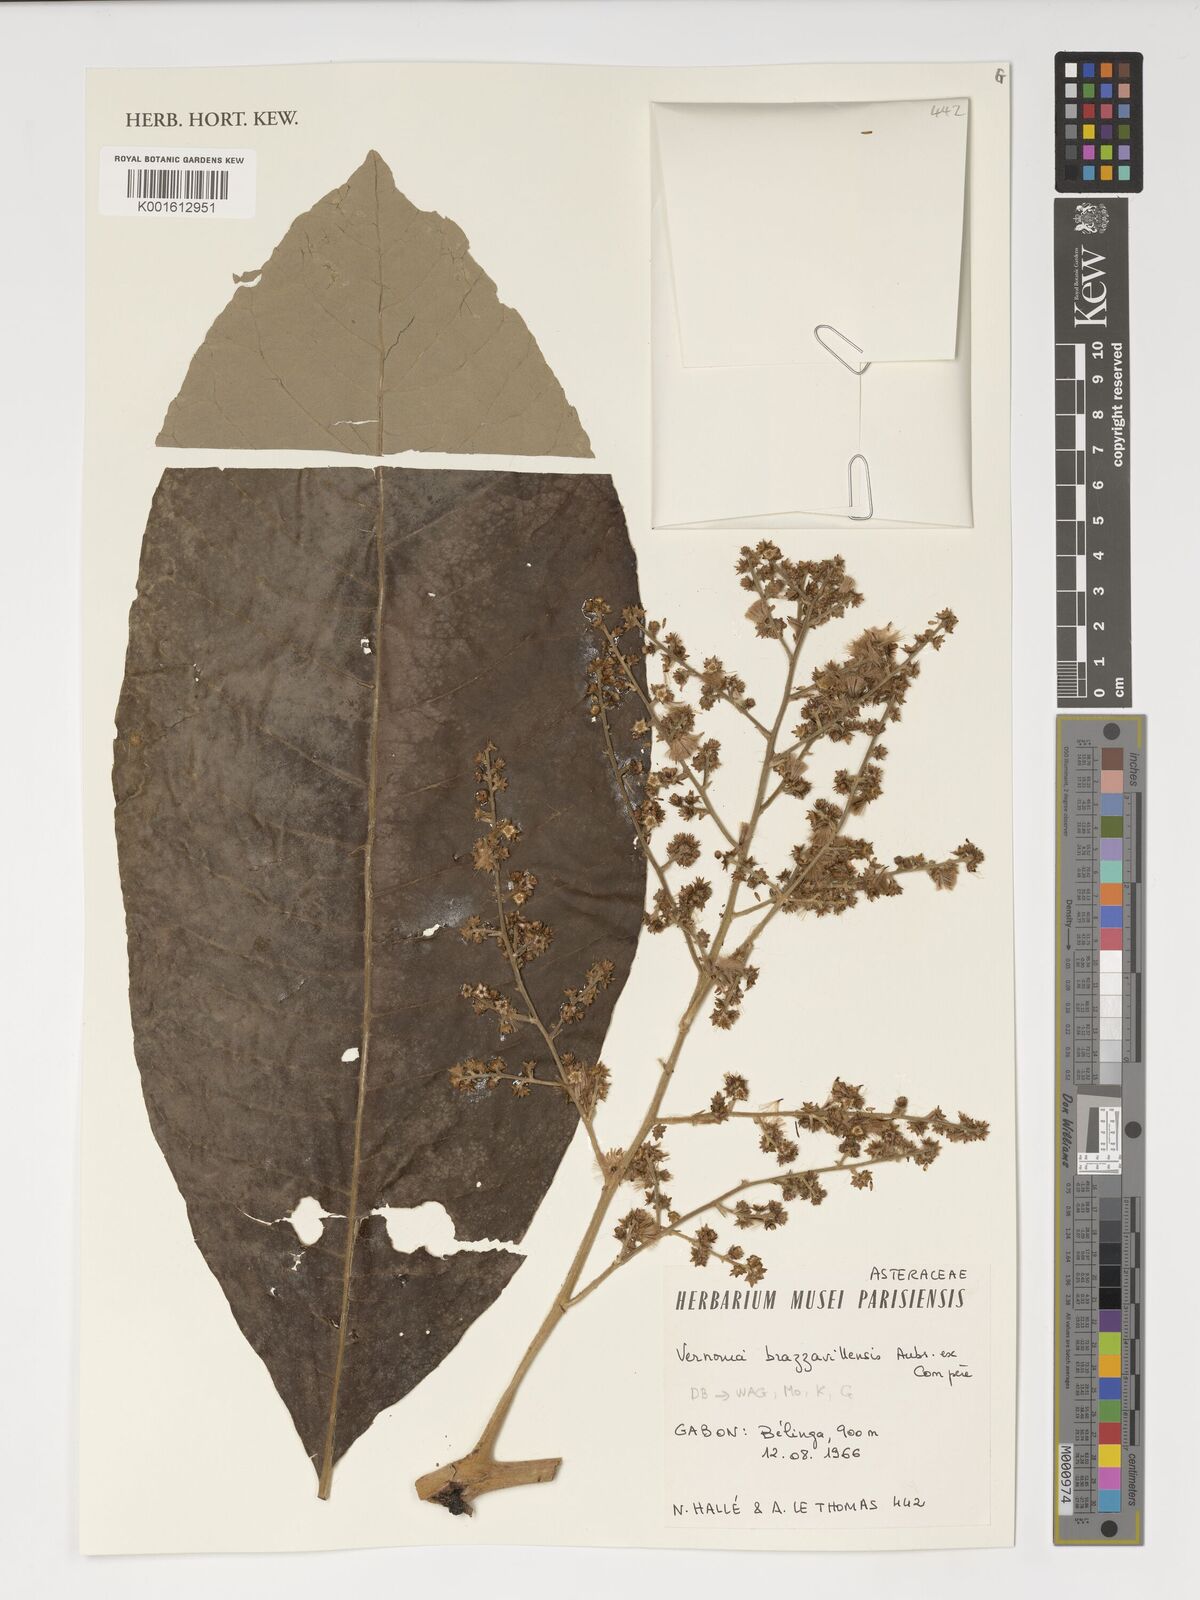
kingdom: Plantae
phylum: Tracheophyta
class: Magnoliopsida
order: Asterales
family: Asteraceae
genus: Vernonia
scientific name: Vernonia brazzavillensis
